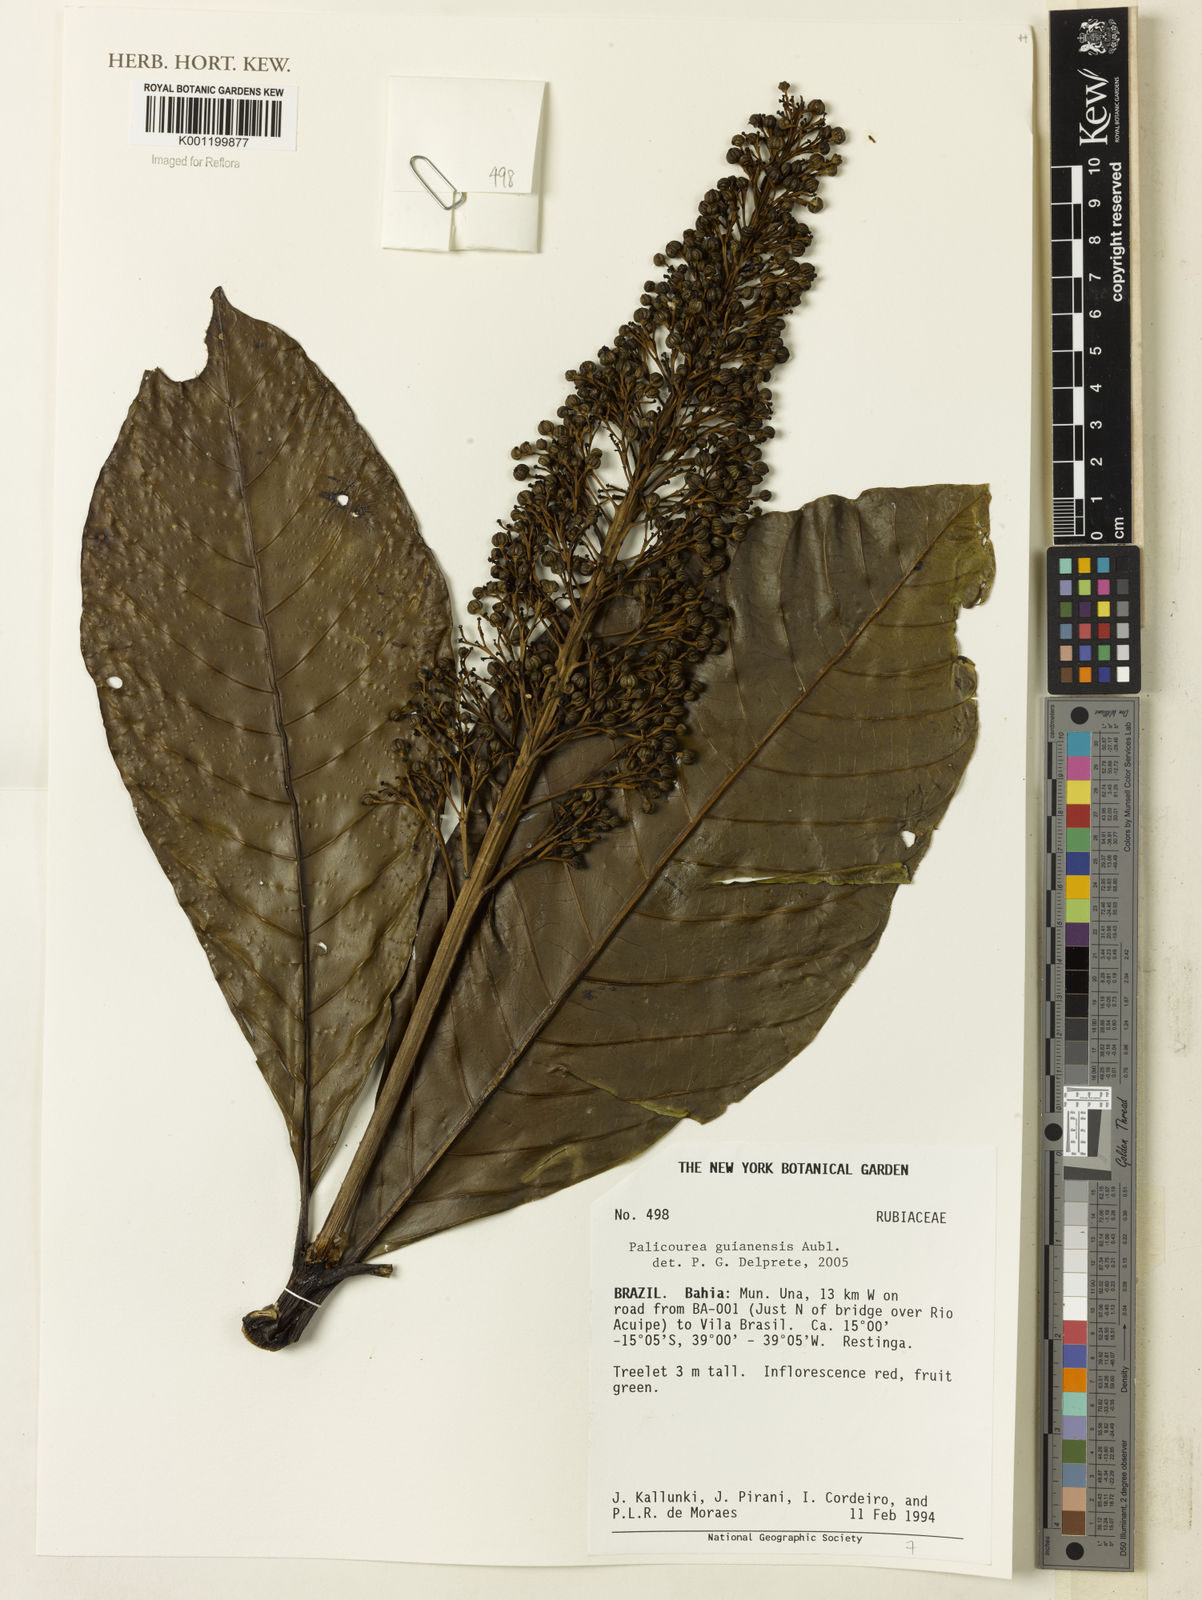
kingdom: Plantae
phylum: Tracheophyta
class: Magnoliopsida
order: Gentianales
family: Rubiaceae
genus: Palicourea
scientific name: Palicourea guianensis
